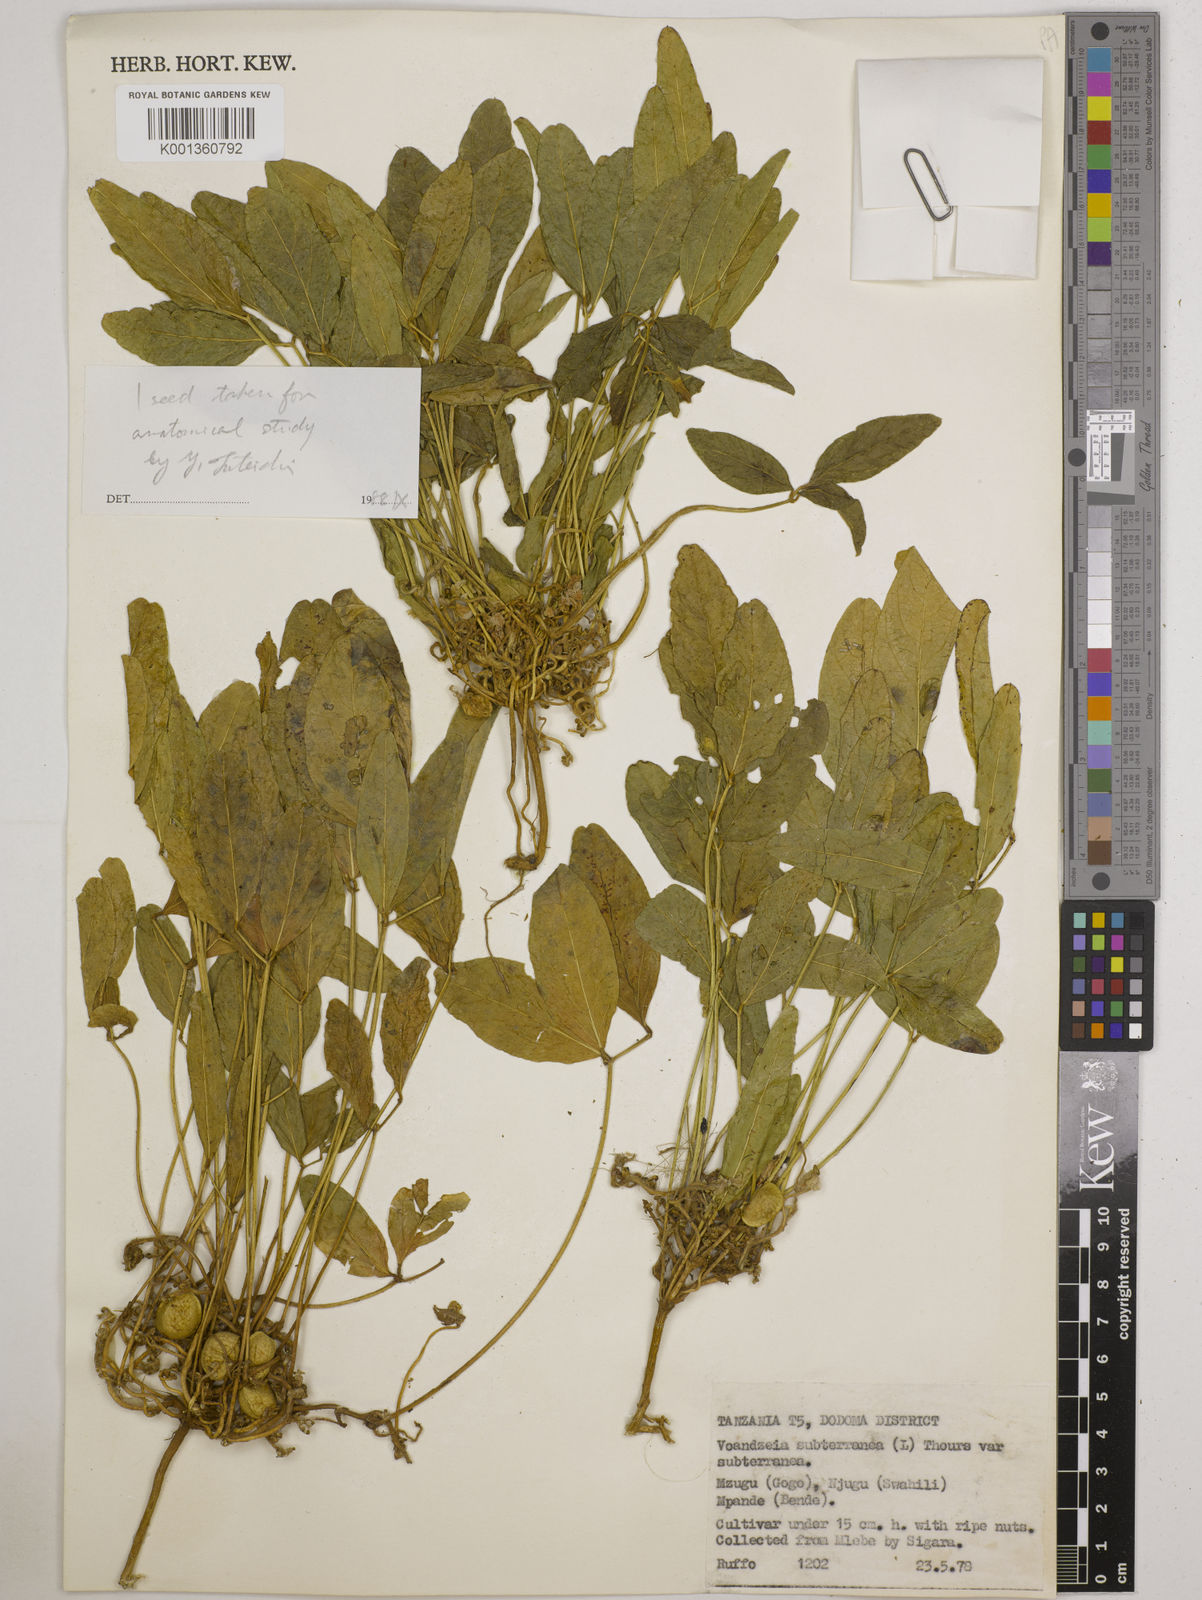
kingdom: Plantae
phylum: Tracheophyta
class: Magnoliopsida
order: Fabales
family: Fabaceae
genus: Vigna
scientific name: Vigna subterranea
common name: Bambara groundnut
